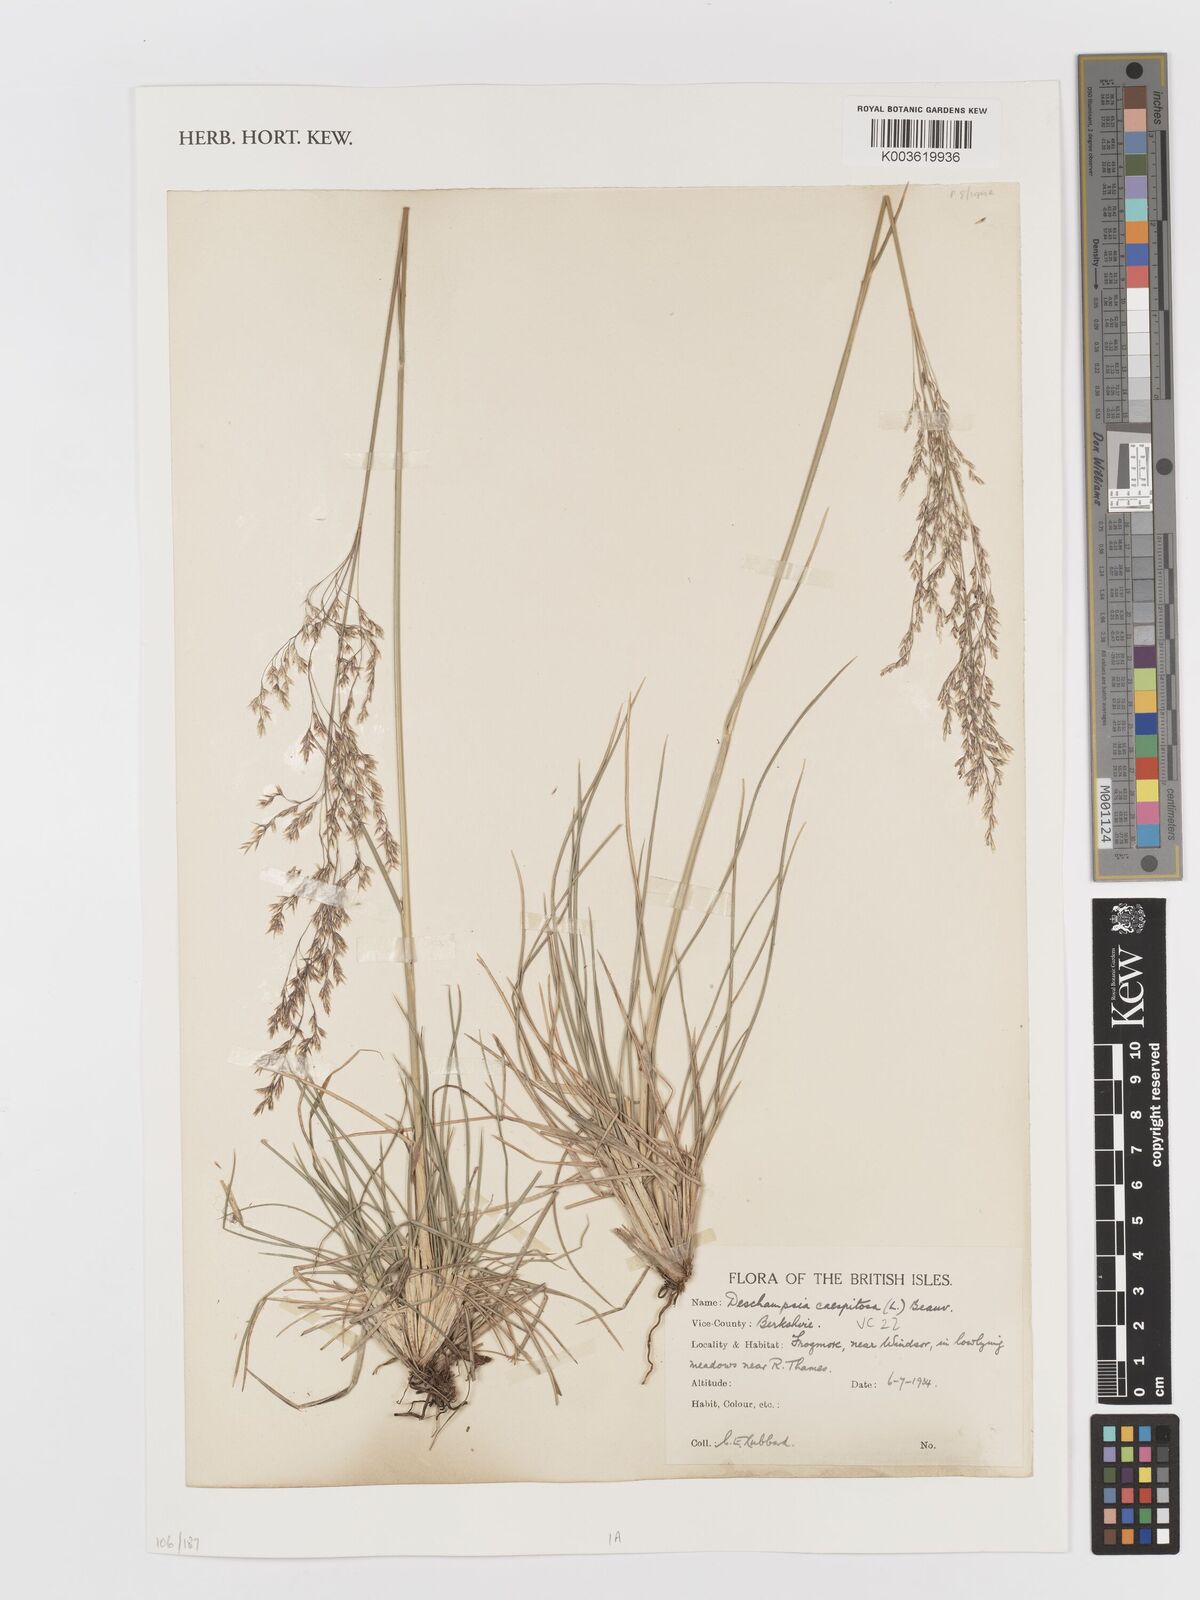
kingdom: Plantae
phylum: Tracheophyta
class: Liliopsida
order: Poales
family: Poaceae
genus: Deschampsia
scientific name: Deschampsia
